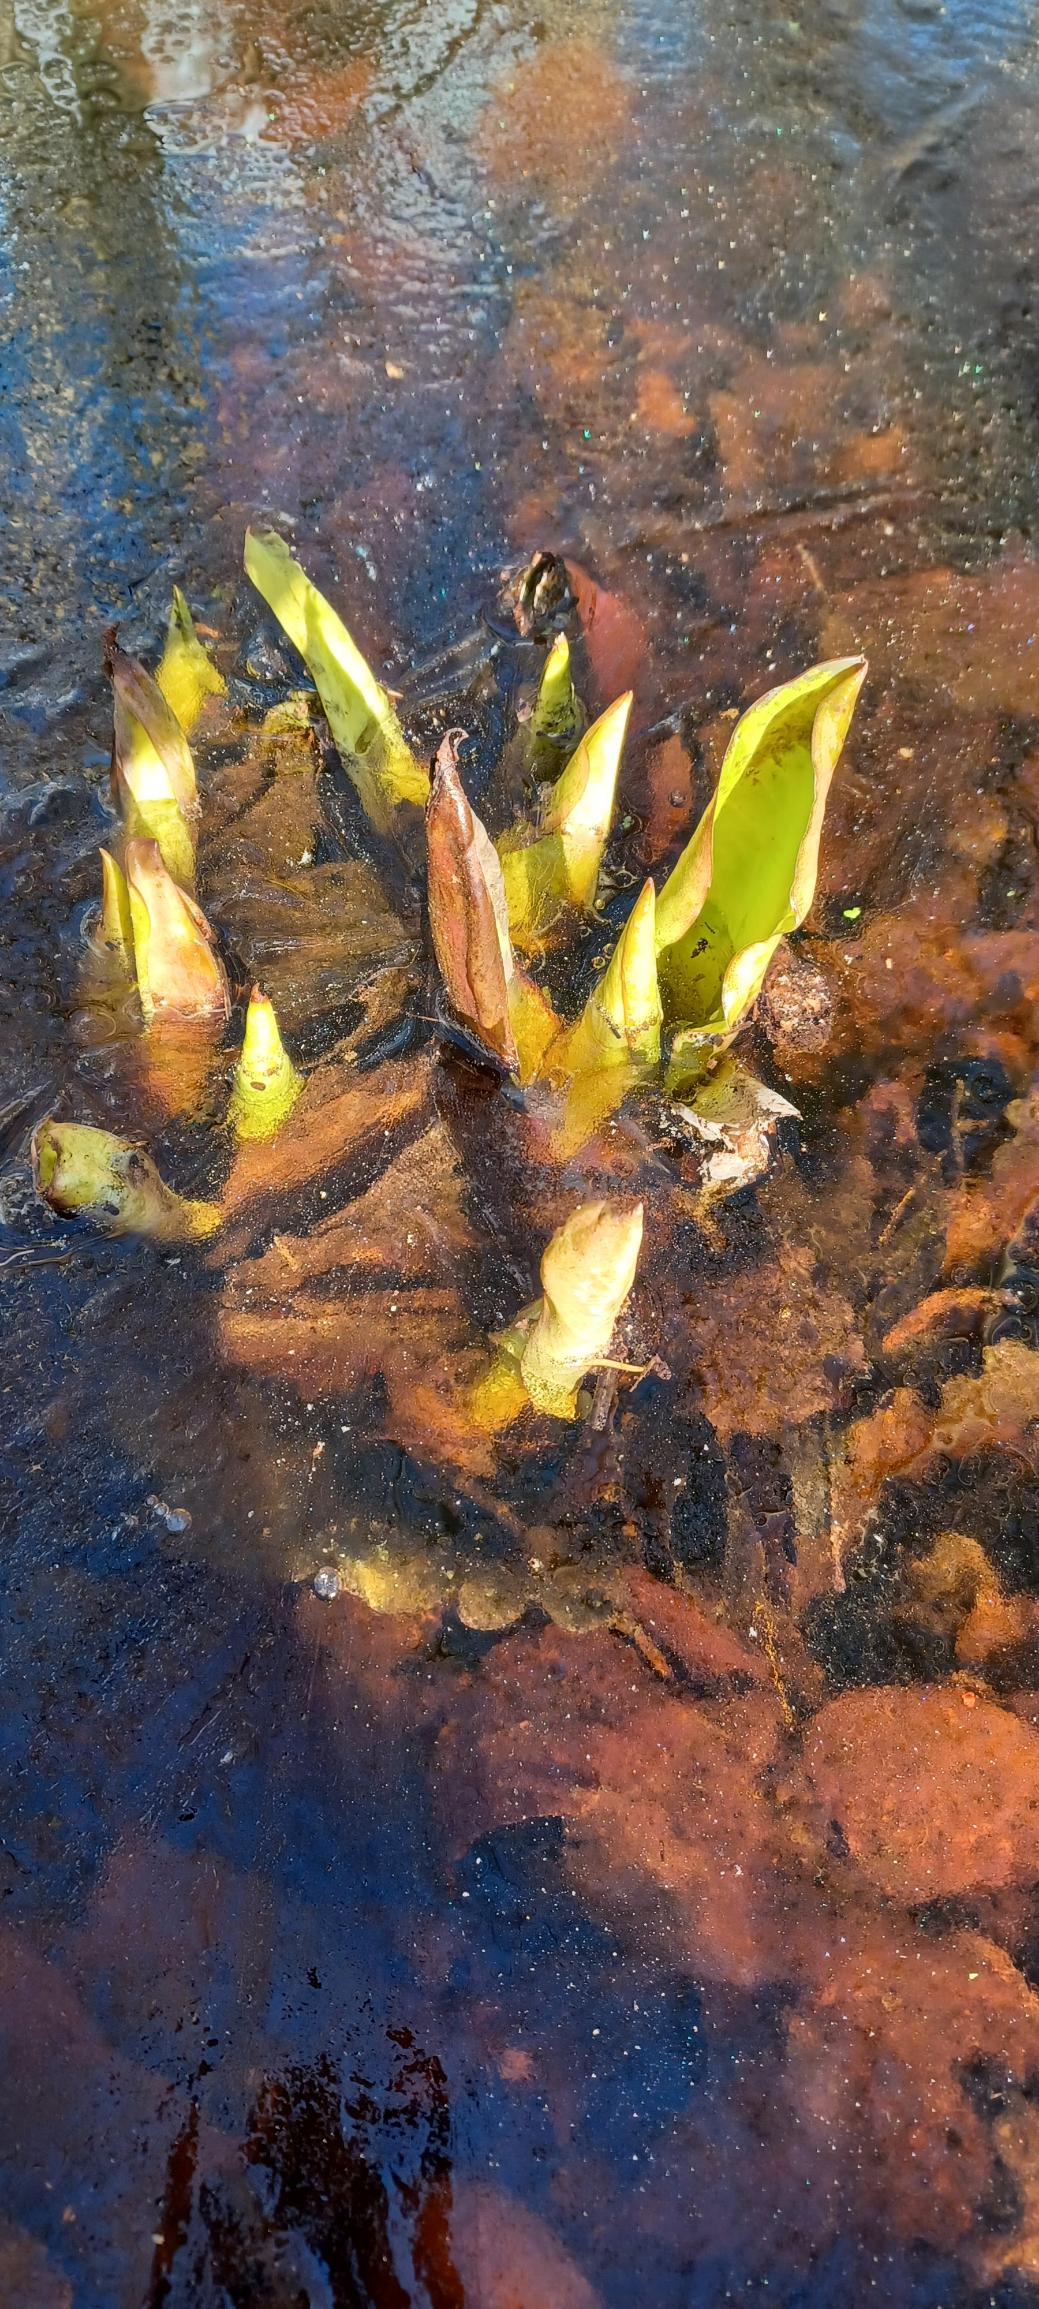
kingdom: Plantae
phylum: Tracheophyta
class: Liliopsida
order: Alismatales
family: Araceae
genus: Lysichiton
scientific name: Lysichiton americanus
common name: Gul kæmpekalla
